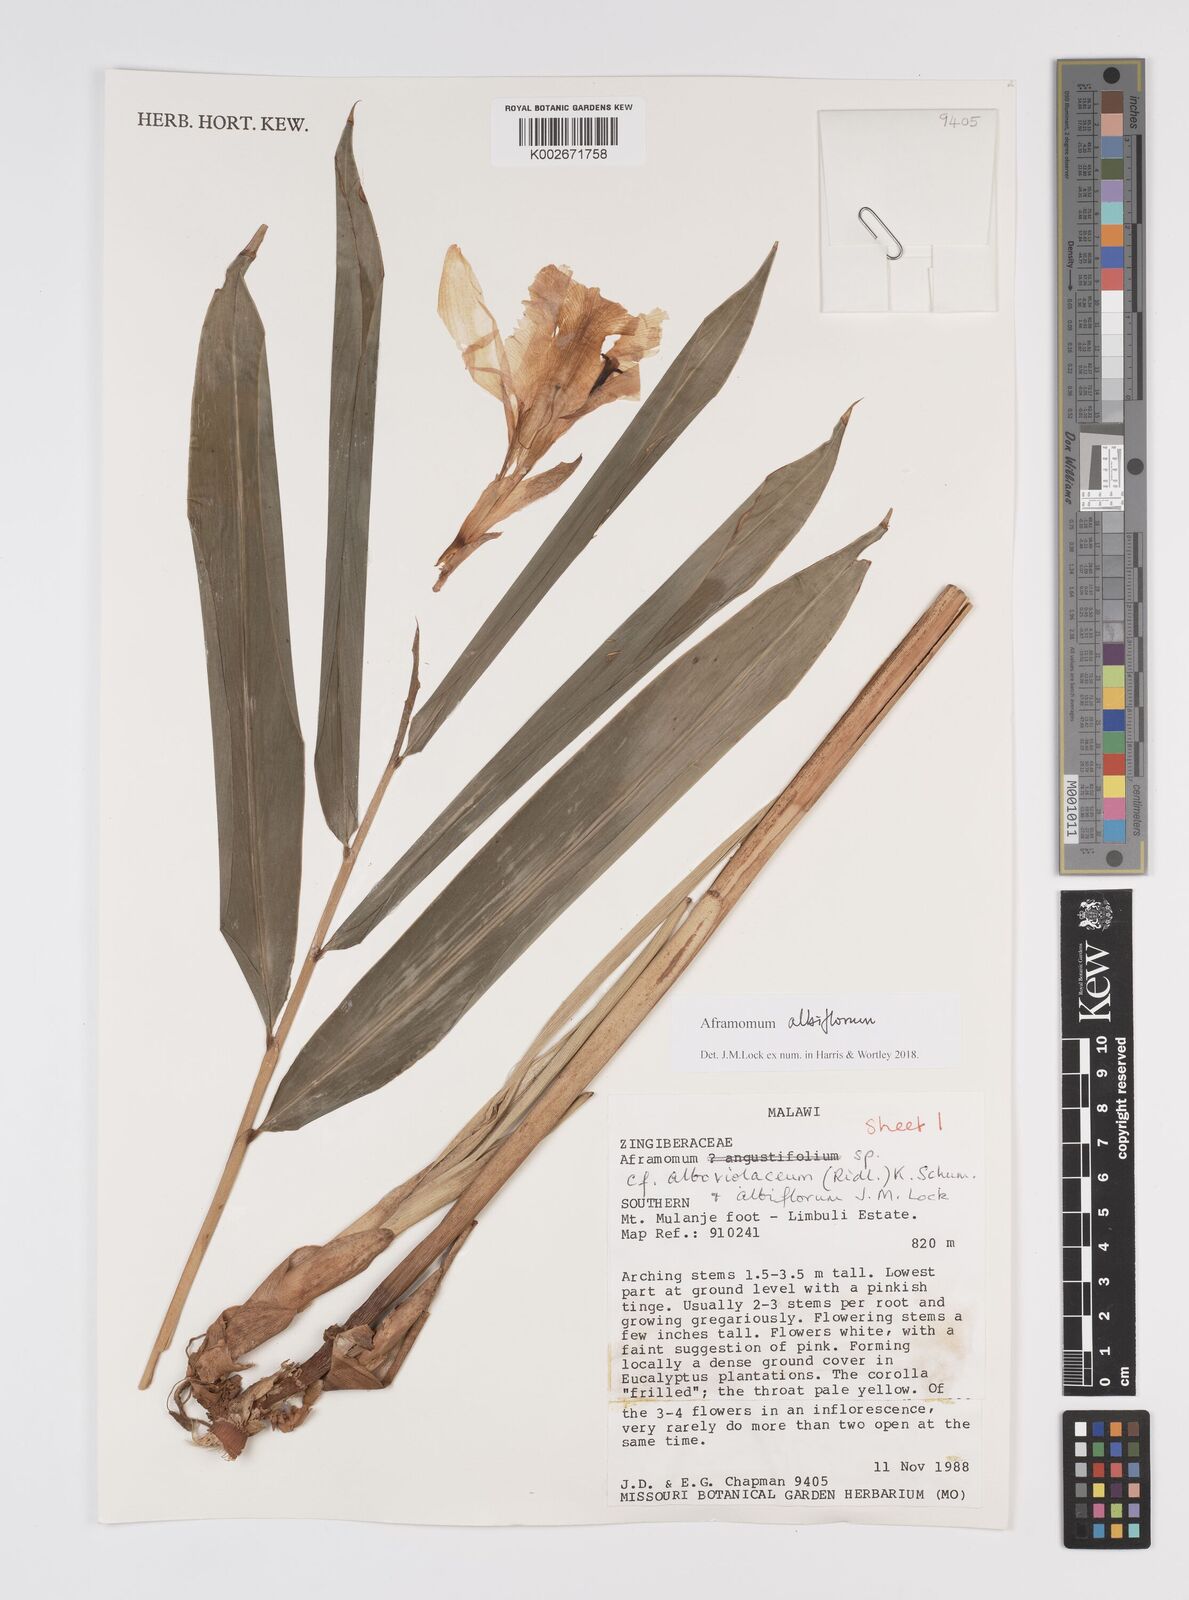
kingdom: Plantae
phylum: Tracheophyta
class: Liliopsida
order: Zingiberales
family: Zingiberaceae
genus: Aframomum
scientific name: Aframomum albiflorum
